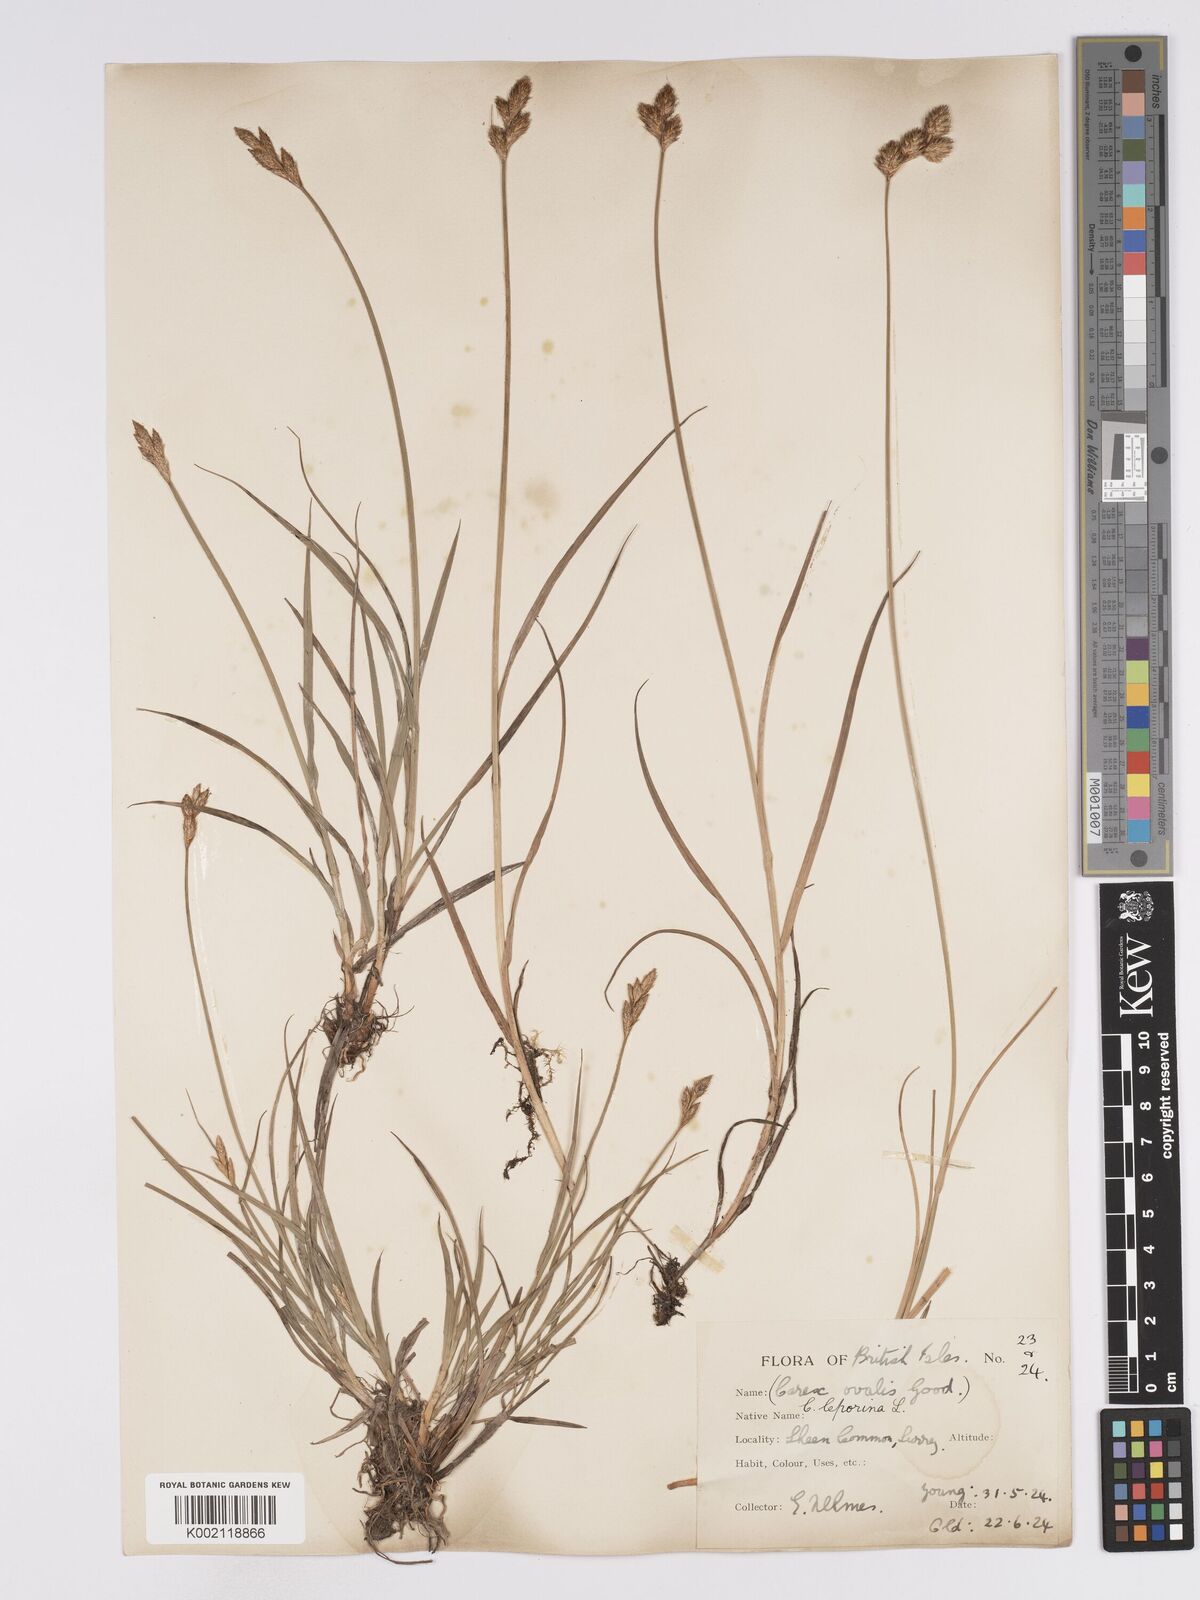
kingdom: Plantae
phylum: Tracheophyta
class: Liliopsida
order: Poales
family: Cyperaceae
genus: Carex
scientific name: Carex leporina
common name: Oval sedge
